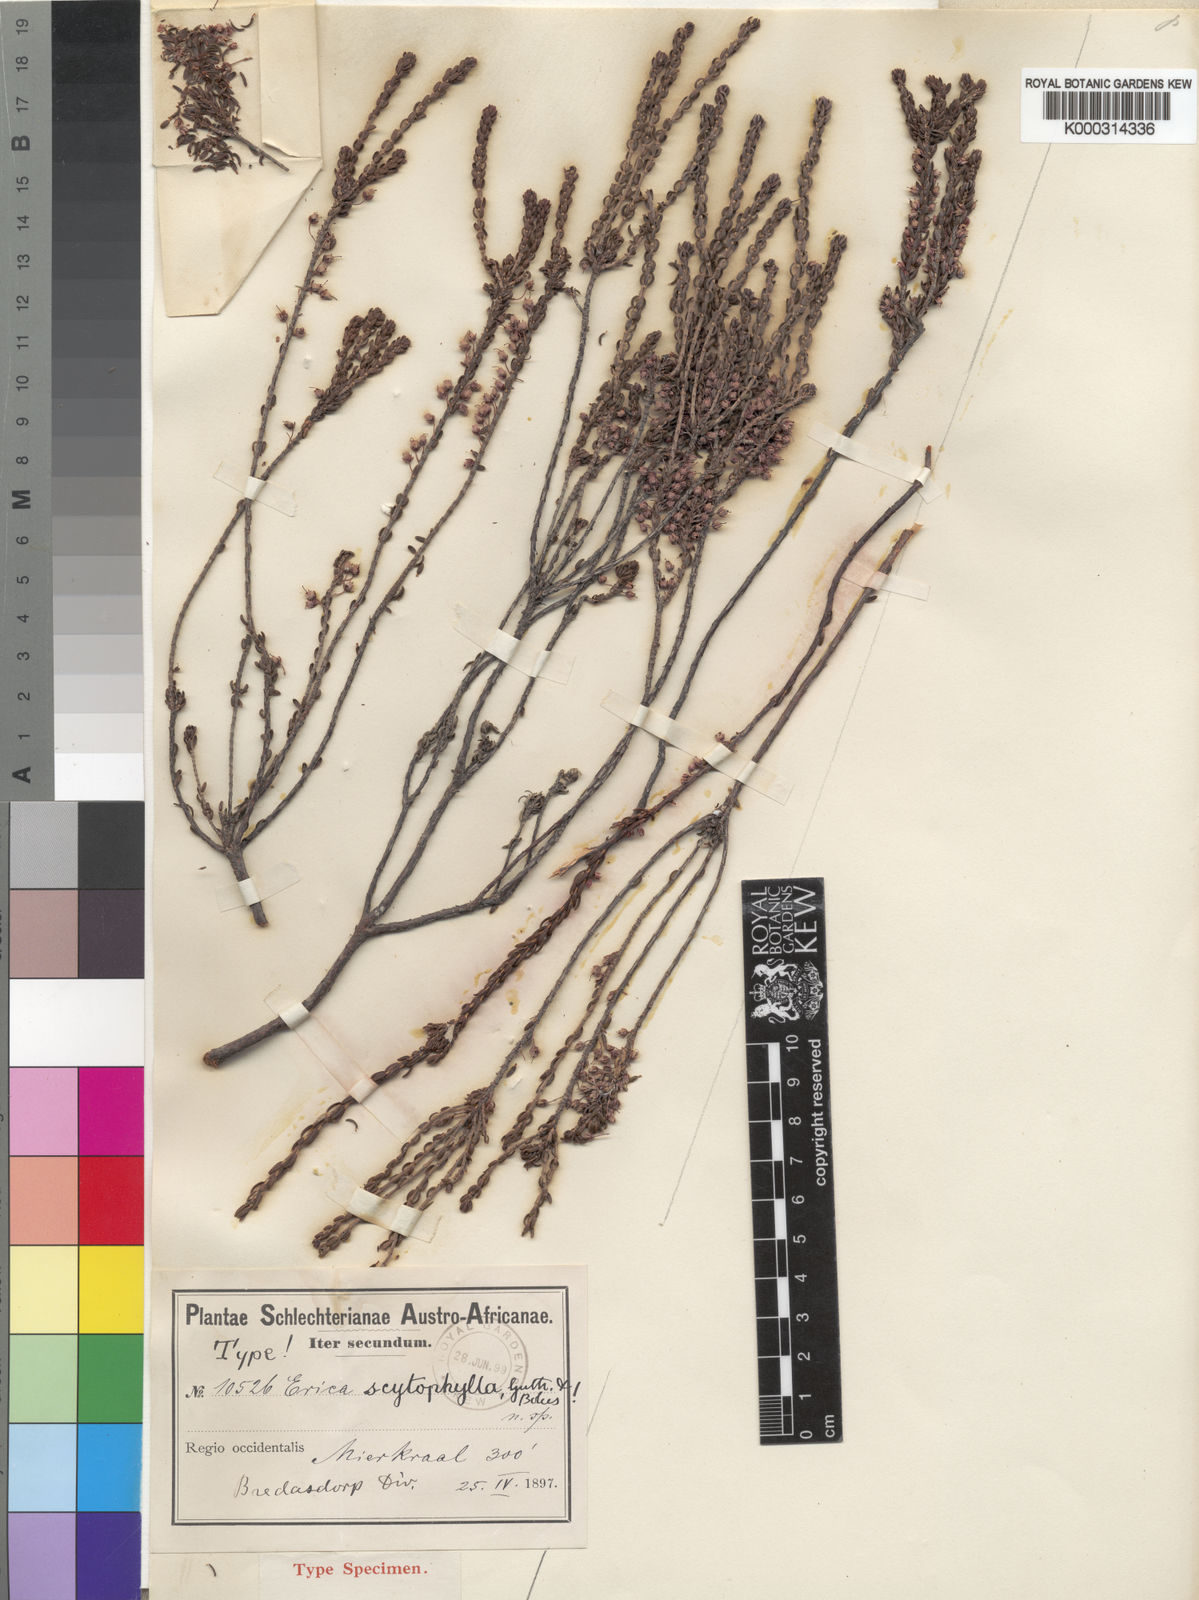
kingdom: Plantae
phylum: Tracheophyta
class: Magnoliopsida
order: Ericales
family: Ericaceae
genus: Erica
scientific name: Erica scytophylla
